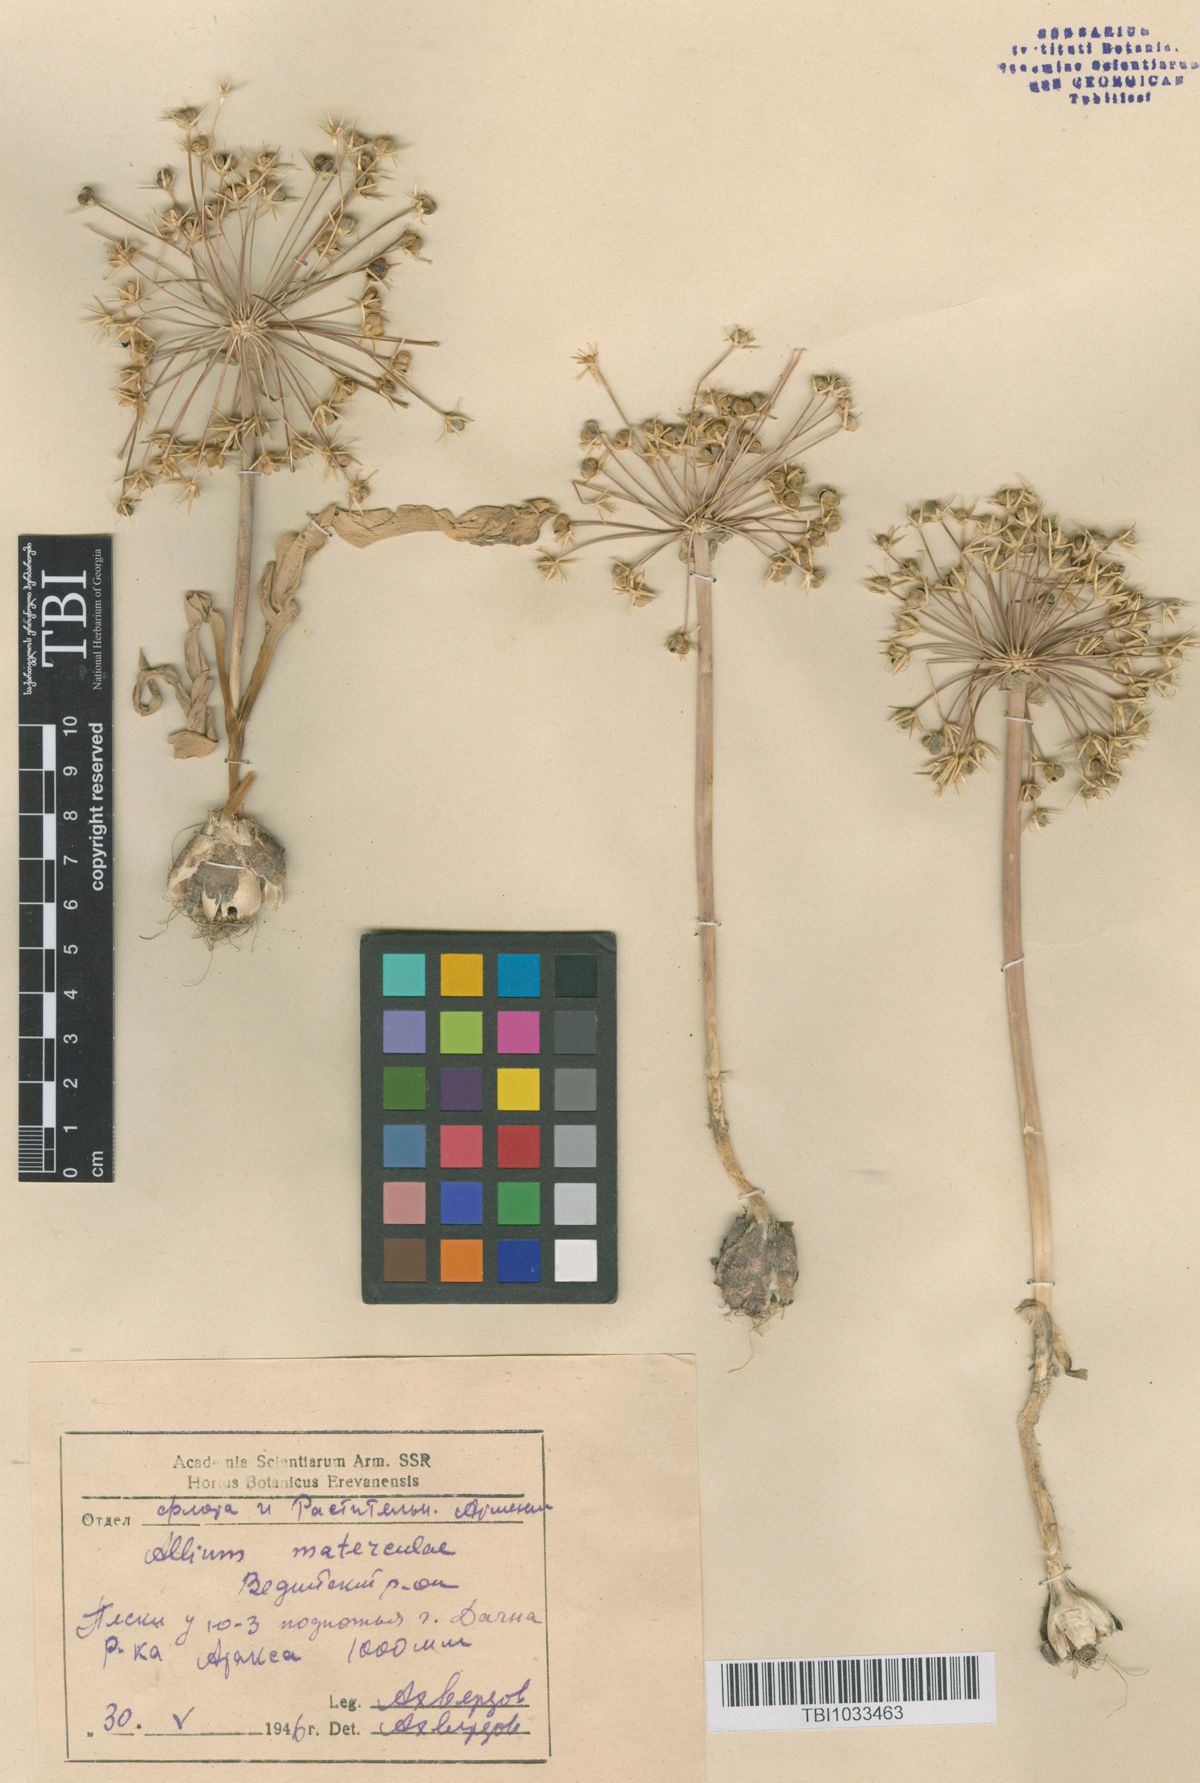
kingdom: Plantae
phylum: Tracheophyta
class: Liliopsida
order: Asparagales
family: Amaryllidaceae
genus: Allium
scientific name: Allium materculae
